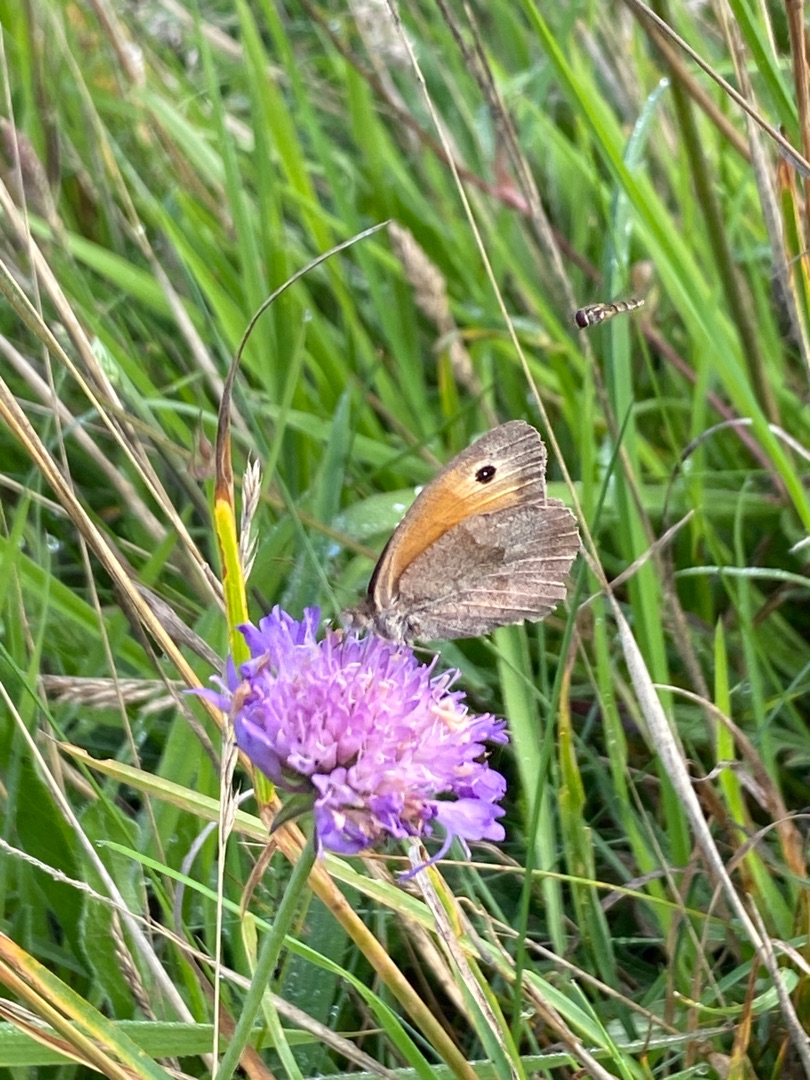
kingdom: Animalia
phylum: Arthropoda
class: Insecta
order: Lepidoptera
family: Nymphalidae
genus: Maniola
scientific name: Maniola jurtina
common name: Græsrandøje
